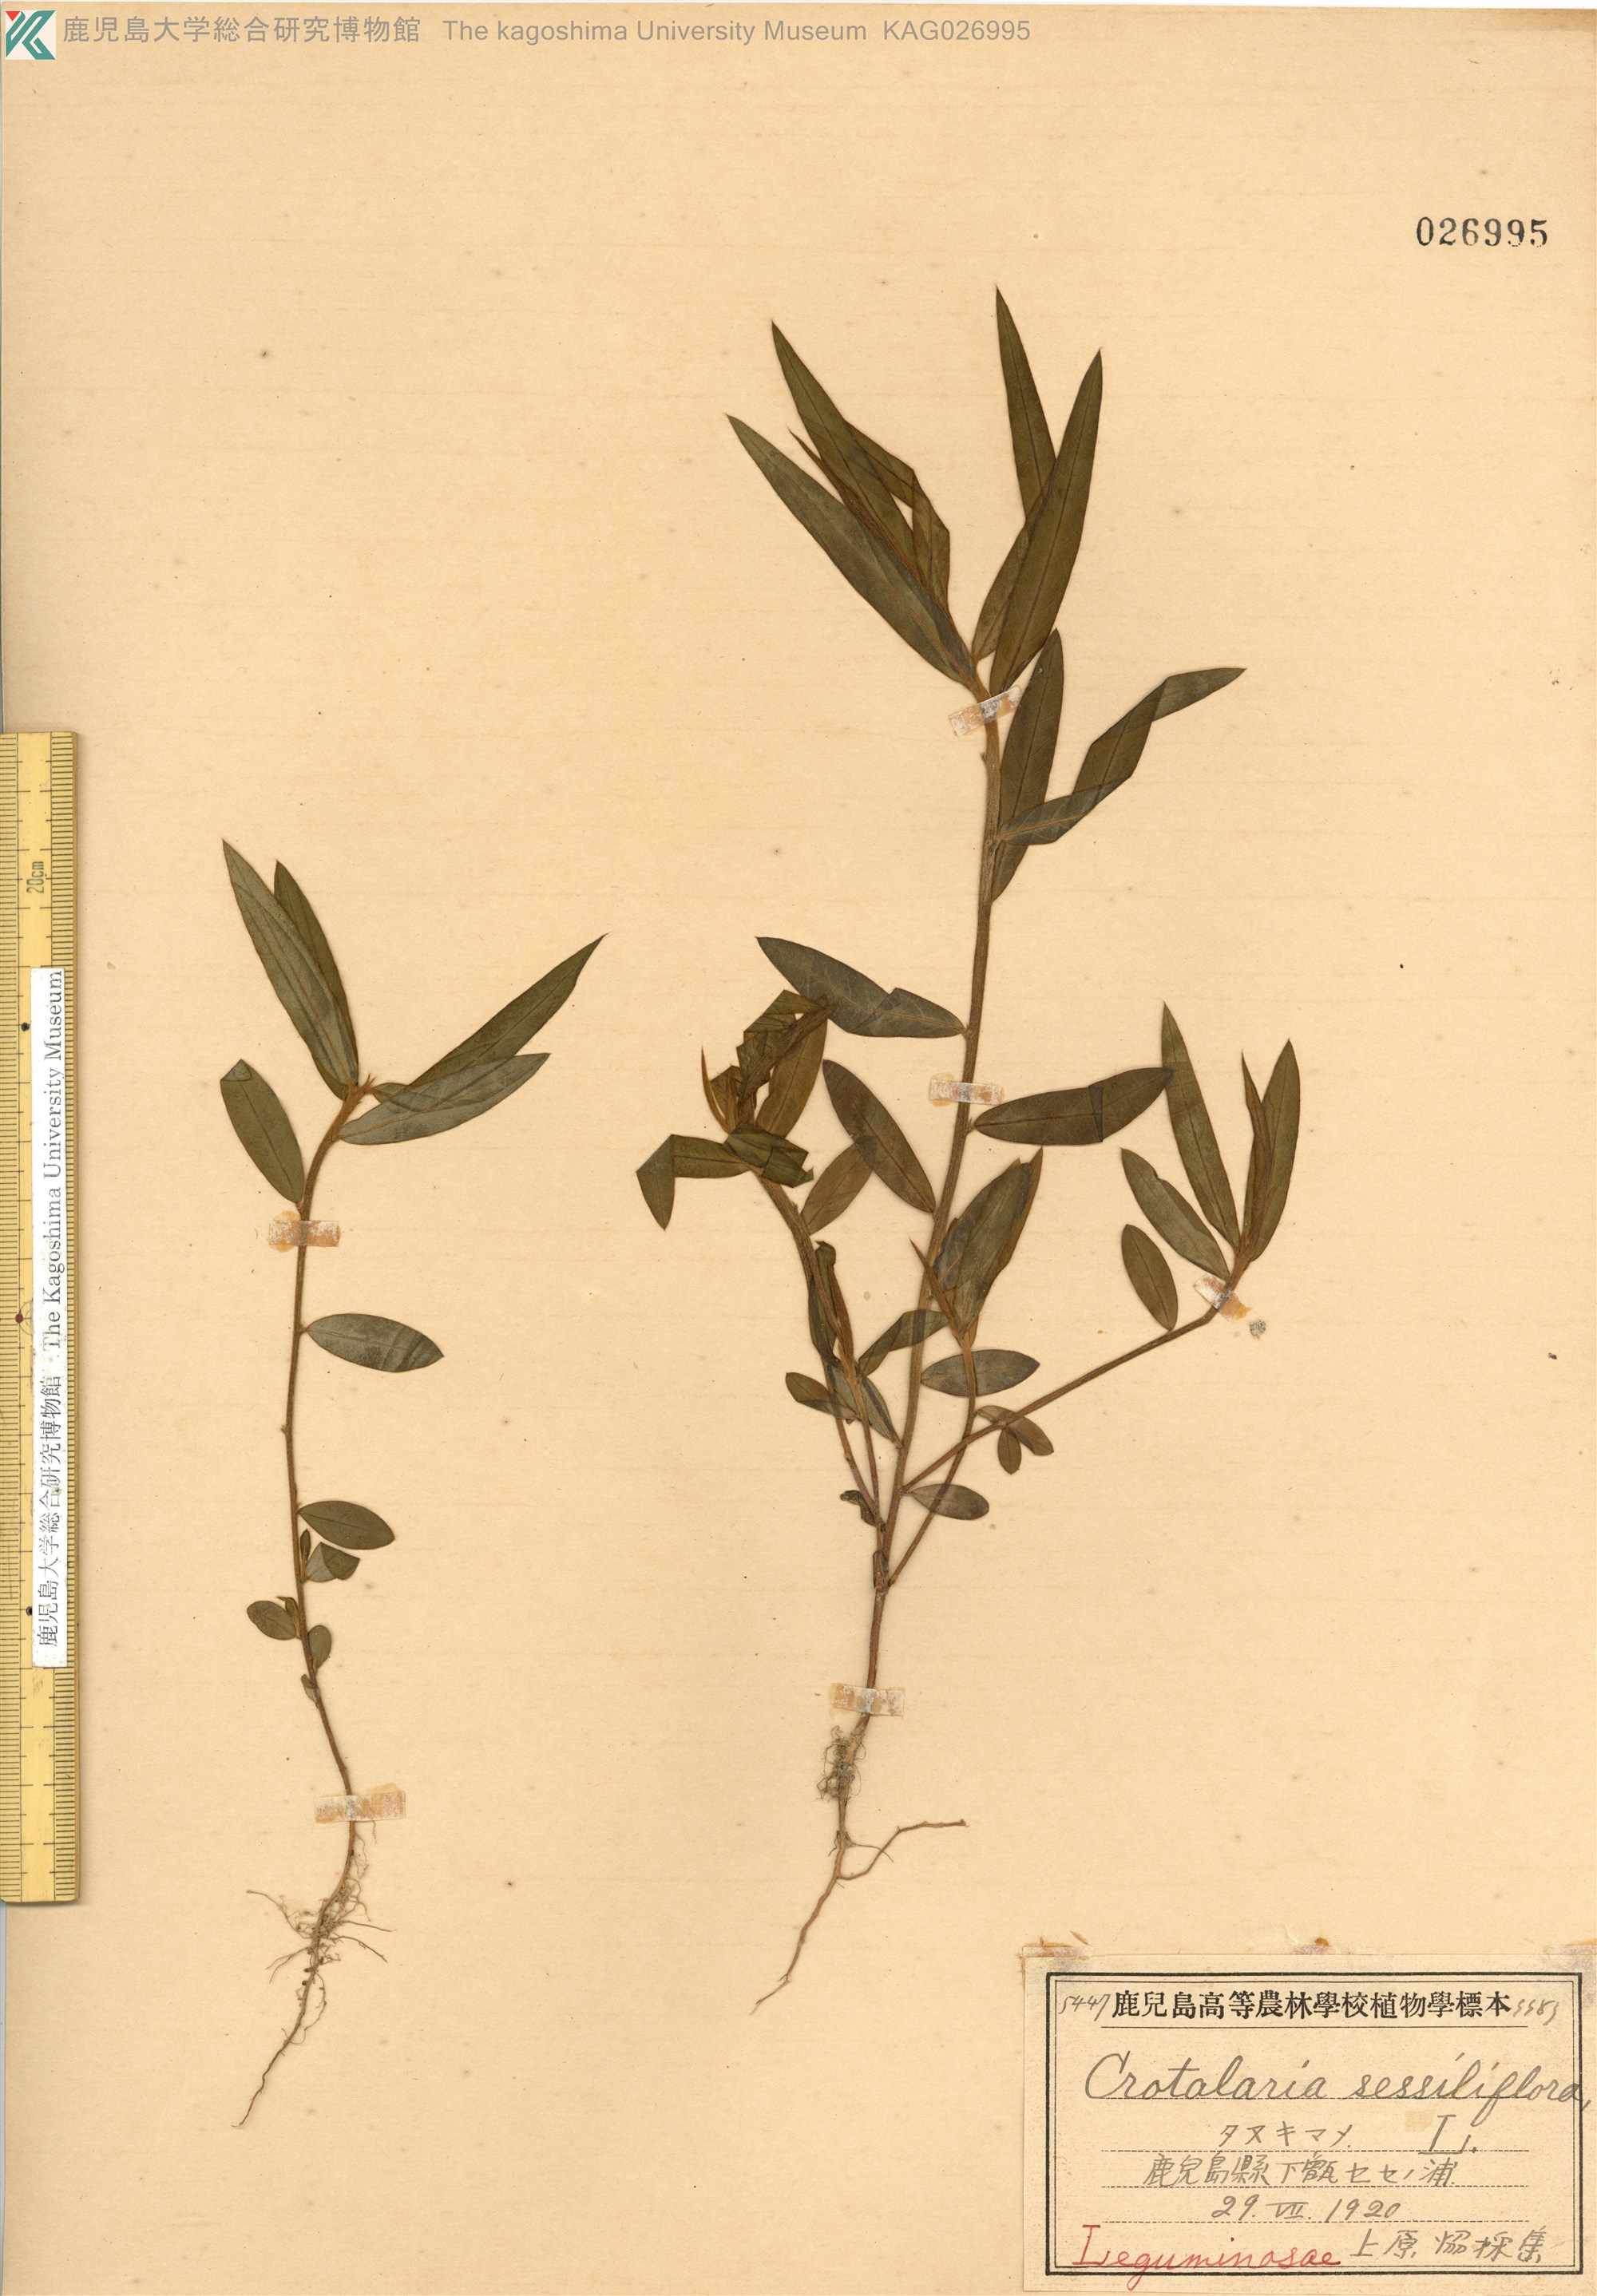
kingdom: Plantae
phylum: Tracheophyta
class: Magnoliopsida
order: Fabales
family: Fabaceae
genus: Crotalaria
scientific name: Crotalaria sessiliflora
